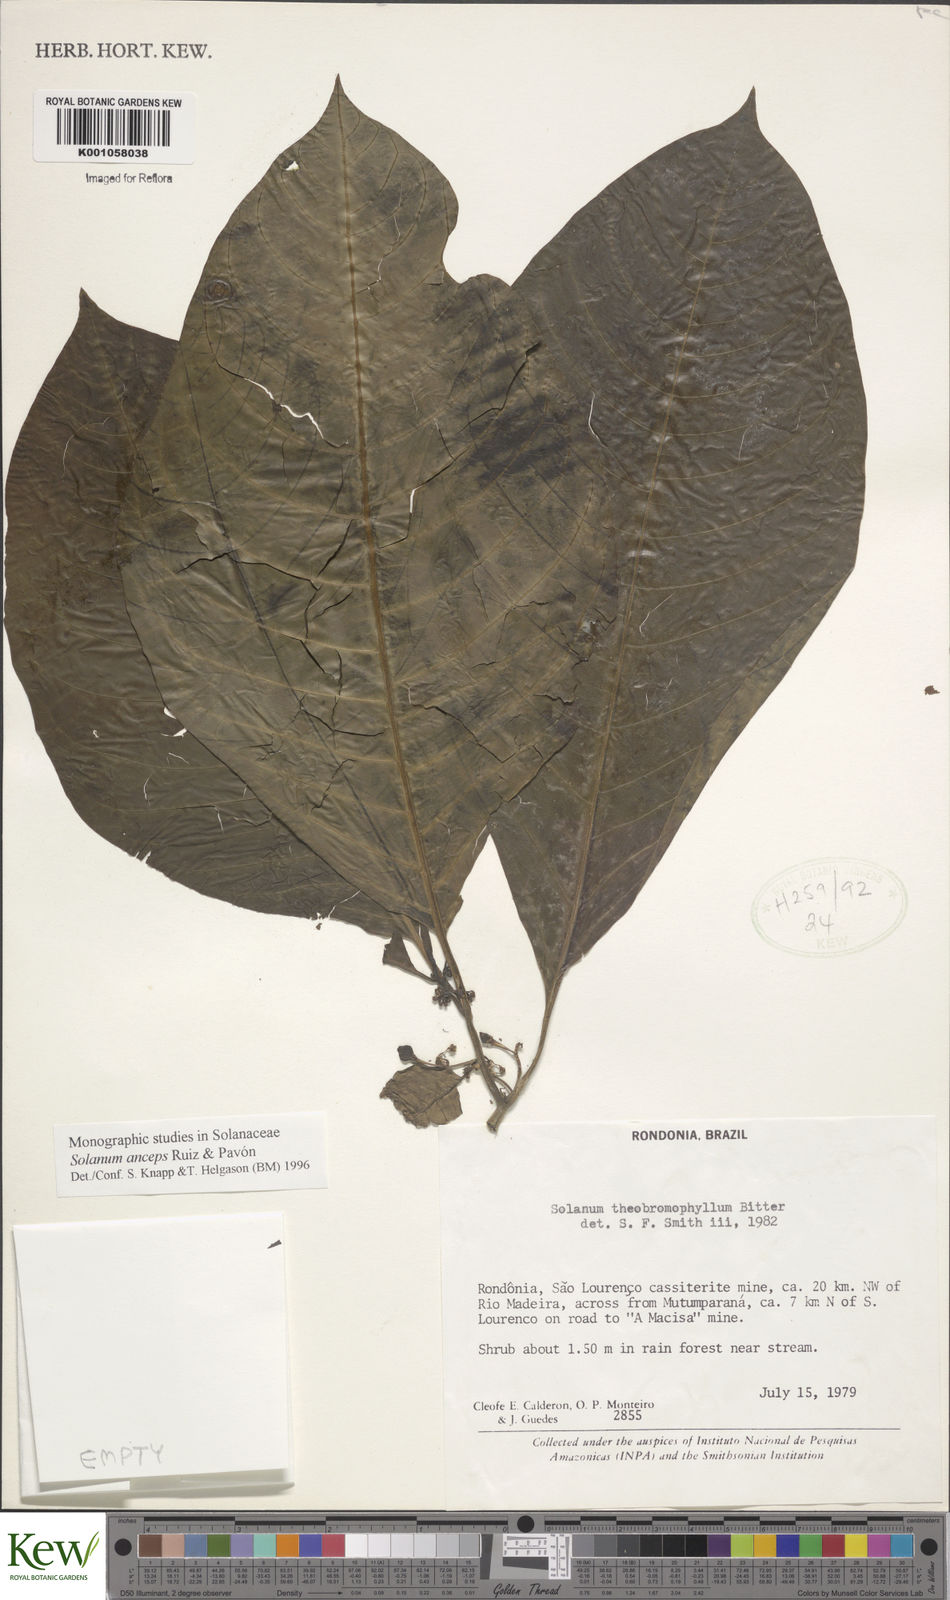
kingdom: Plantae
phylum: Tracheophyta
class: Magnoliopsida
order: Solanales
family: Solanaceae
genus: Solanum
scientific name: Solanum anceps
